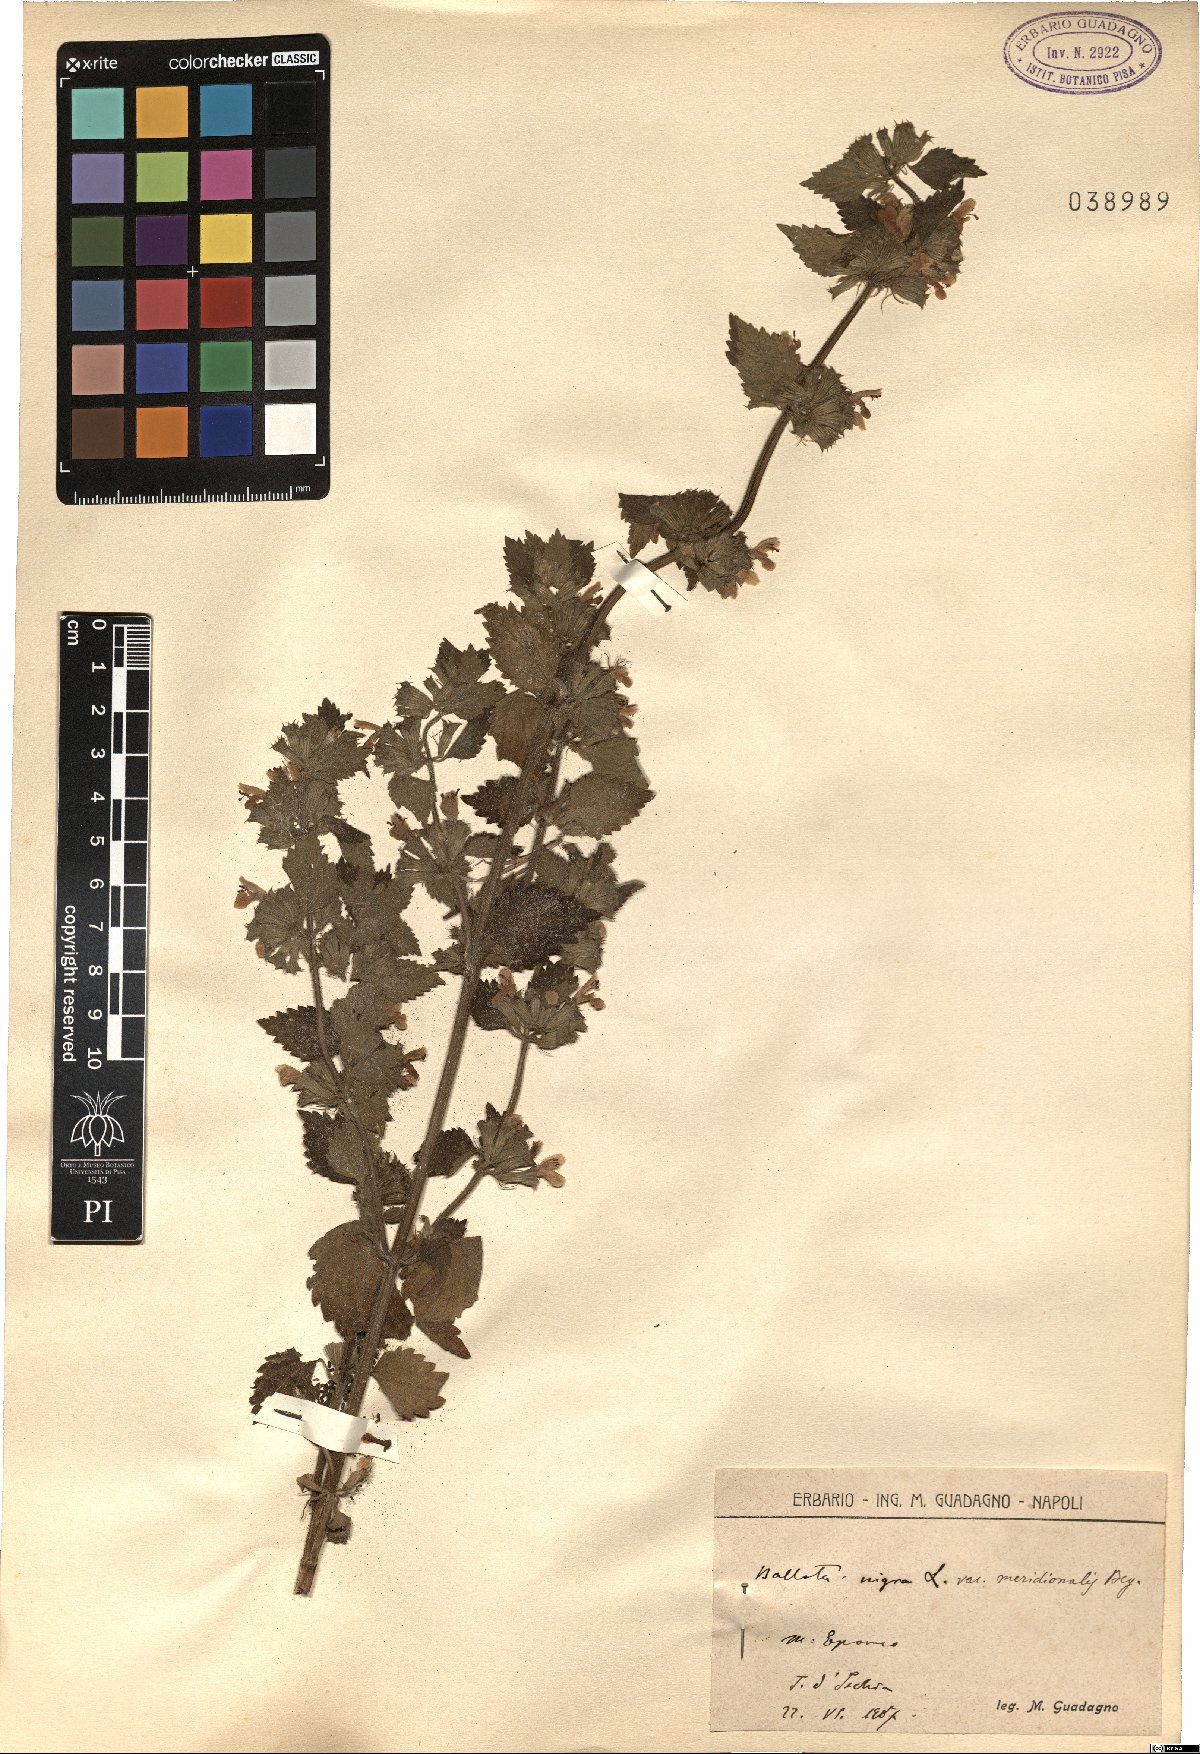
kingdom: Plantae
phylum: Tracheophyta
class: Magnoliopsida
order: Lamiales
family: Lamiaceae
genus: Ballota
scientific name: Ballota nigra
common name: Black horehound
